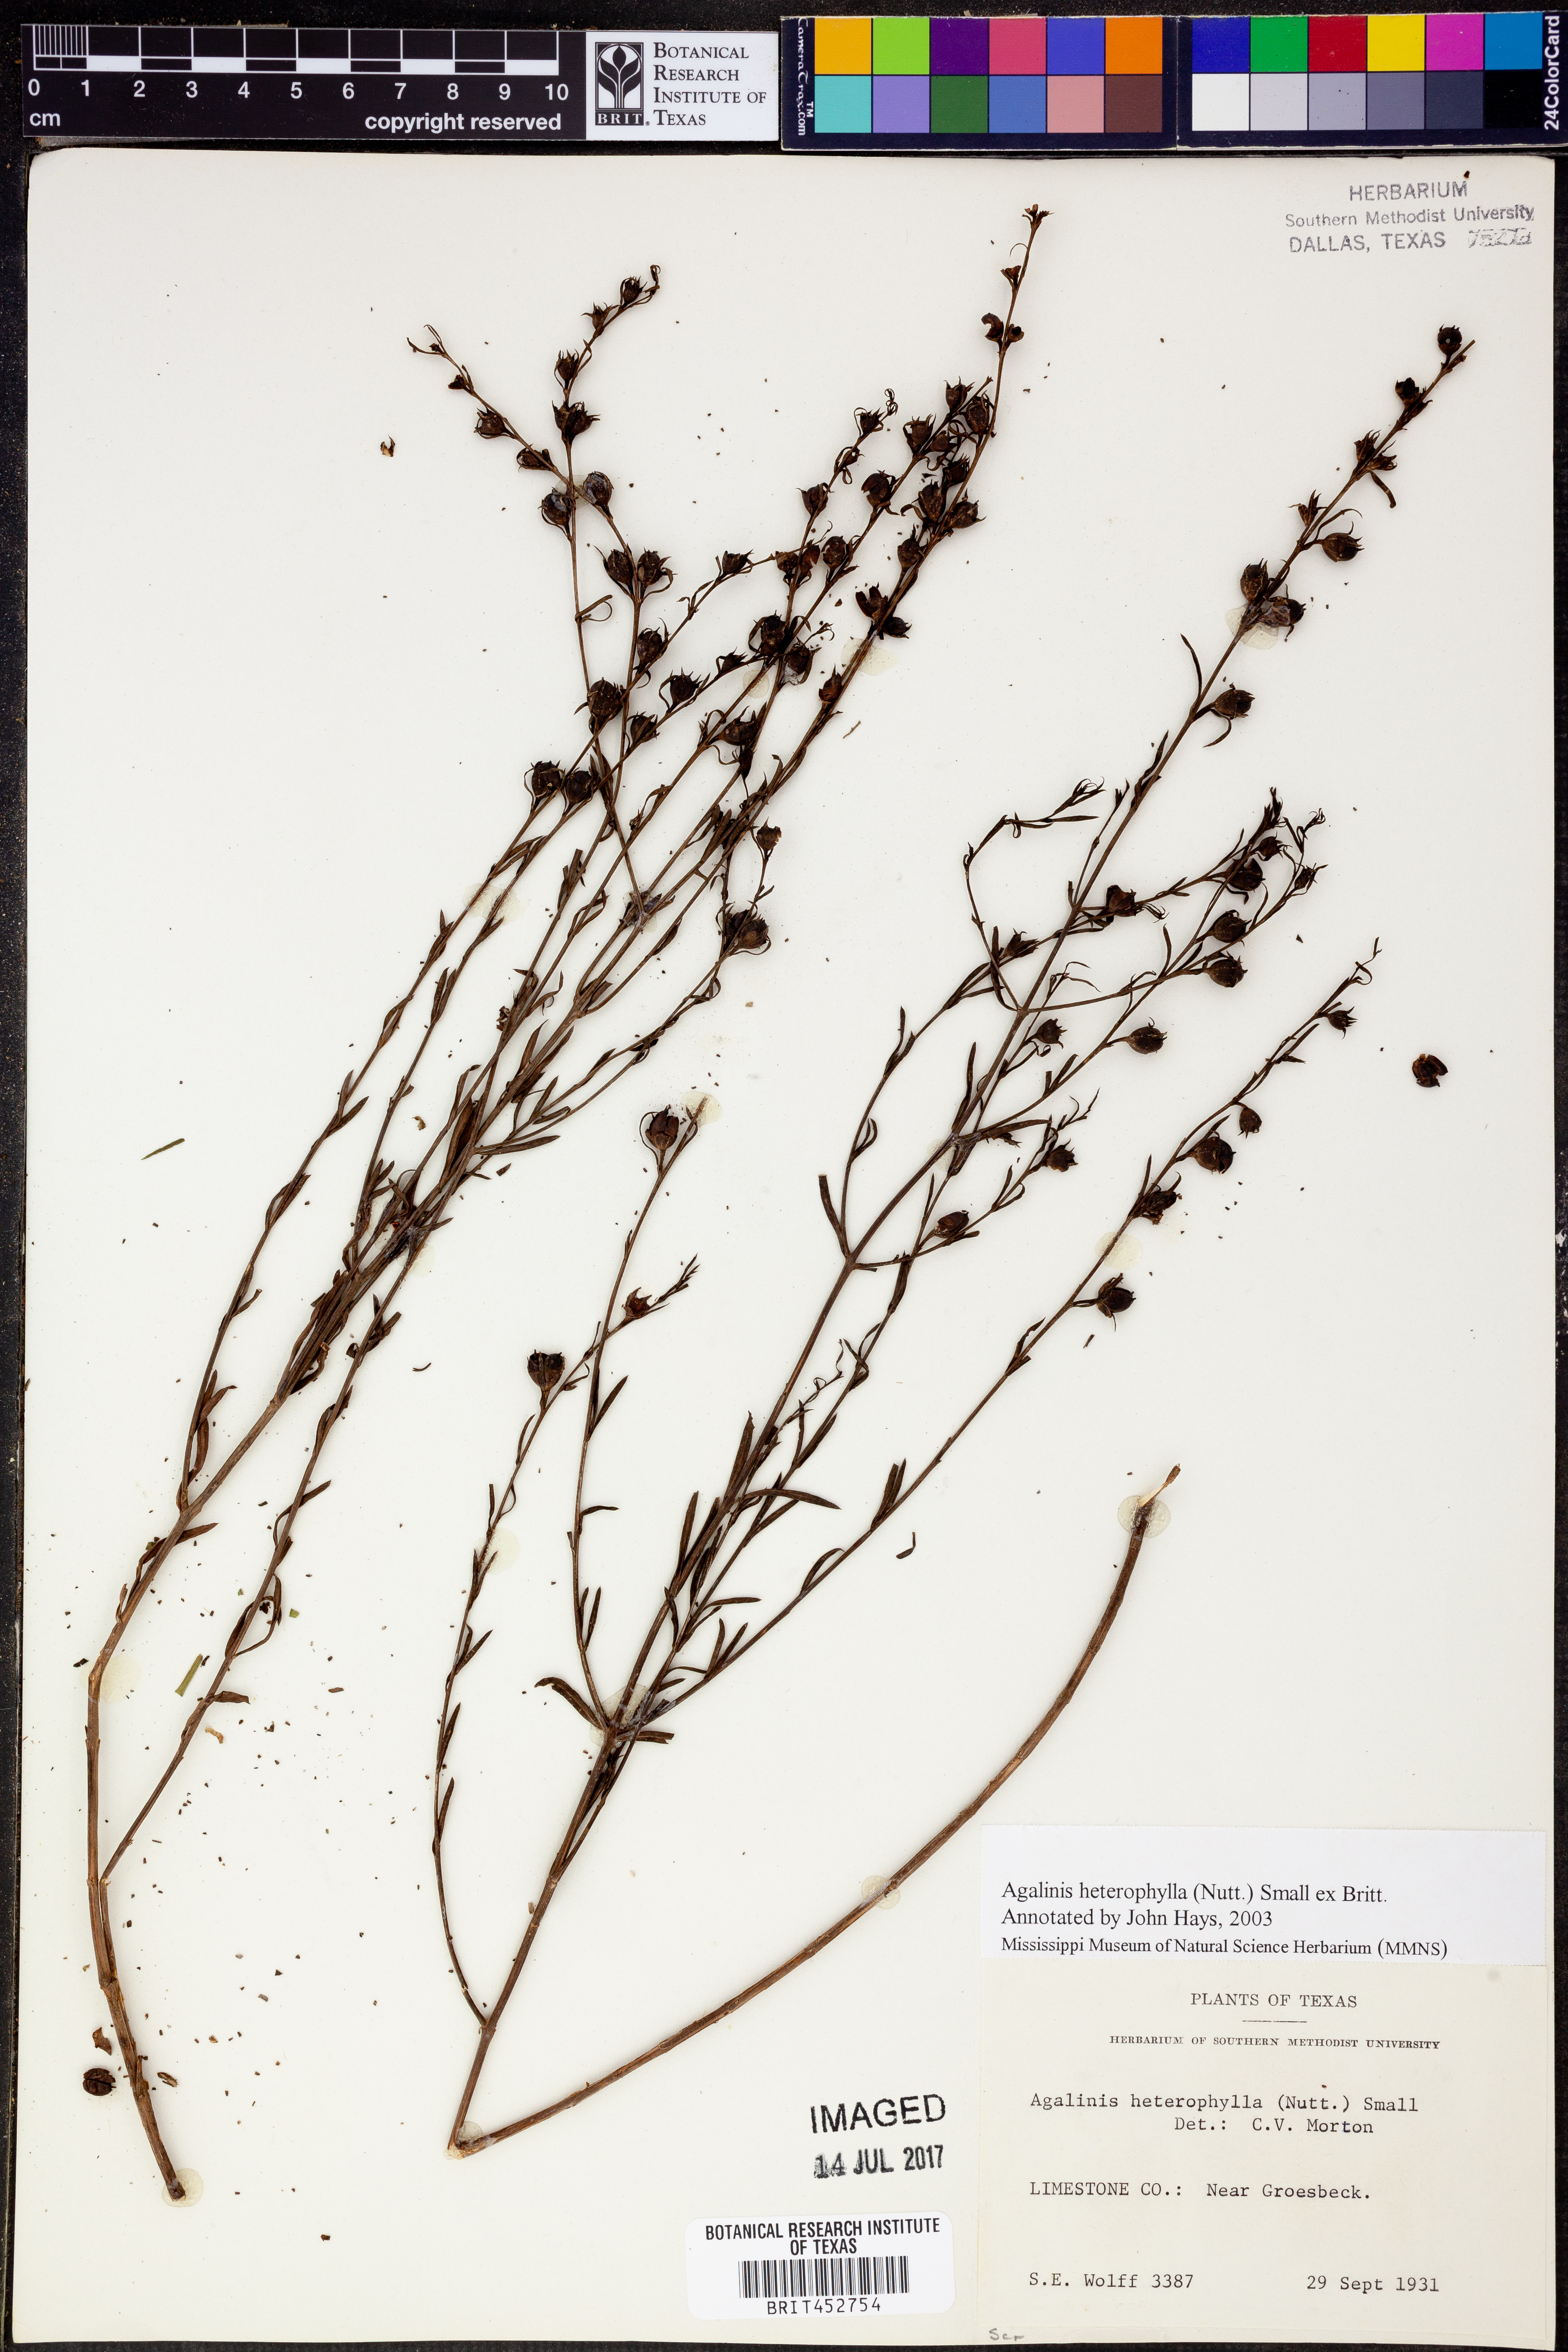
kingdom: Plantae
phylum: Tracheophyta
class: Magnoliopsida
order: Lamiales
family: Orobanchaceae
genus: Agalinis
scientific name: Agalinis heterophylla
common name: Prairie agalinis
